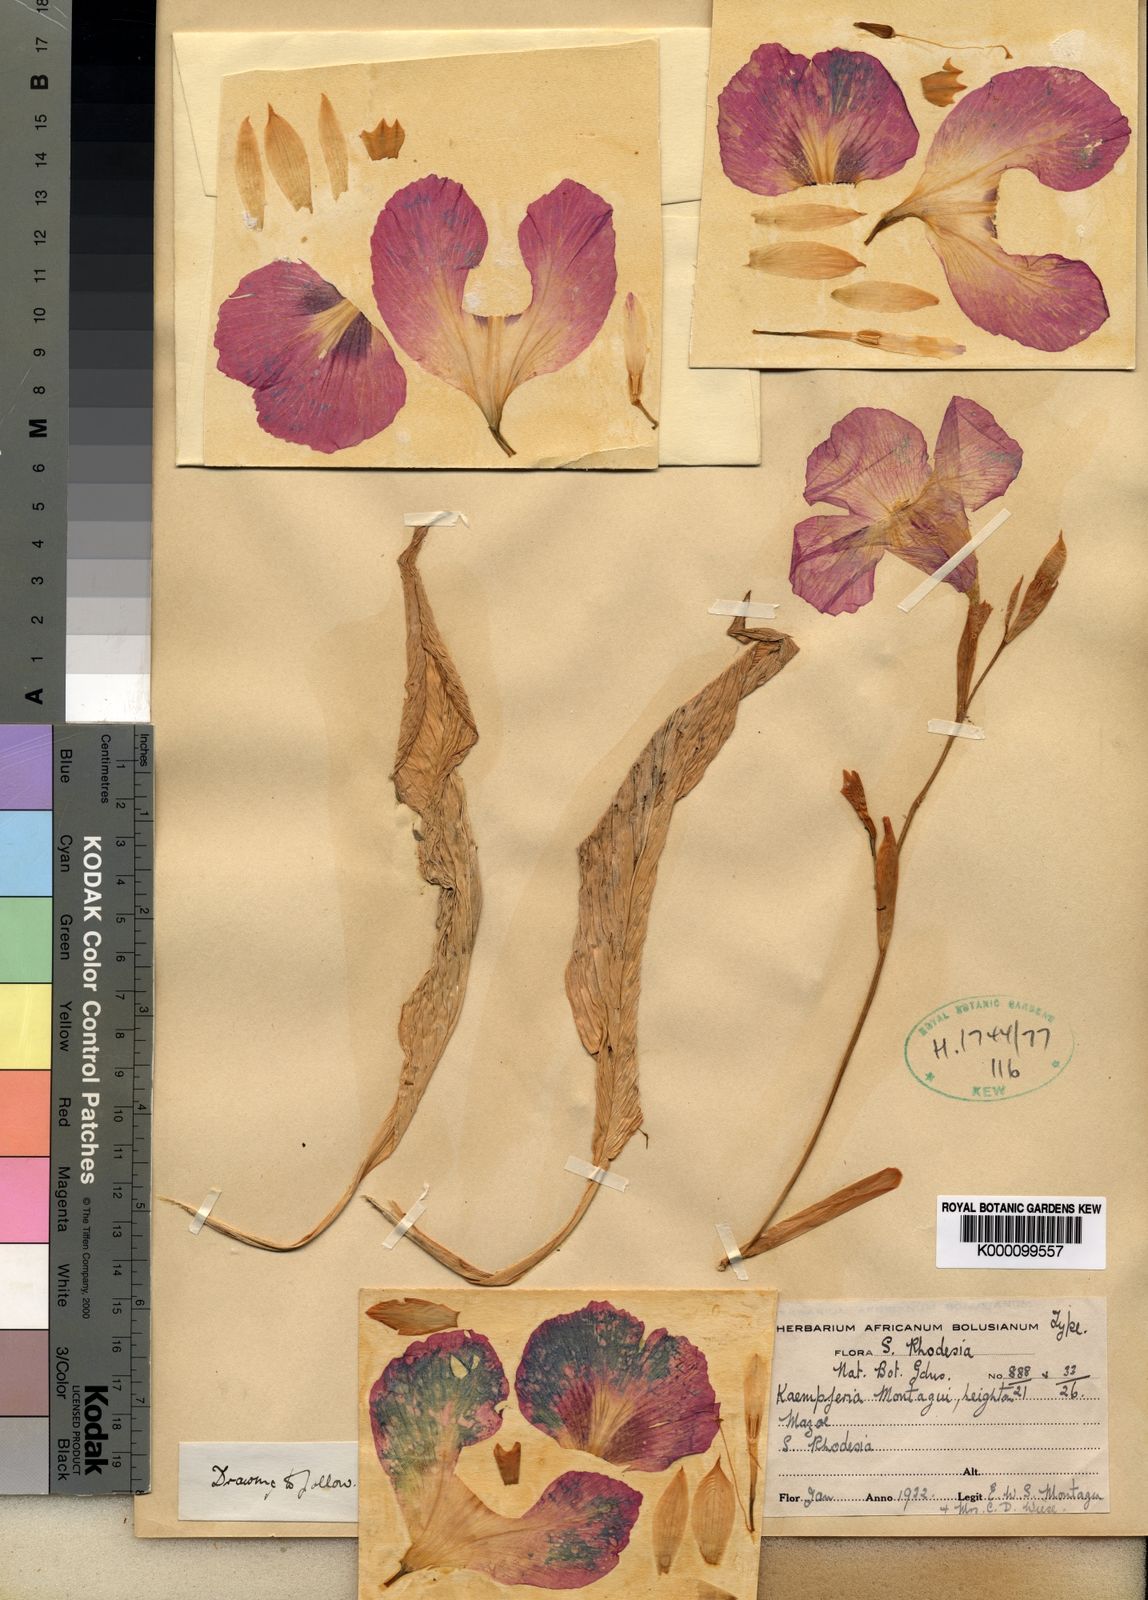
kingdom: Plantae
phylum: Tracheophyta
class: Liliopsida
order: Zingiberales
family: Zingiberaceae
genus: Siphonochilus
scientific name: Siphonochilus kirkii
